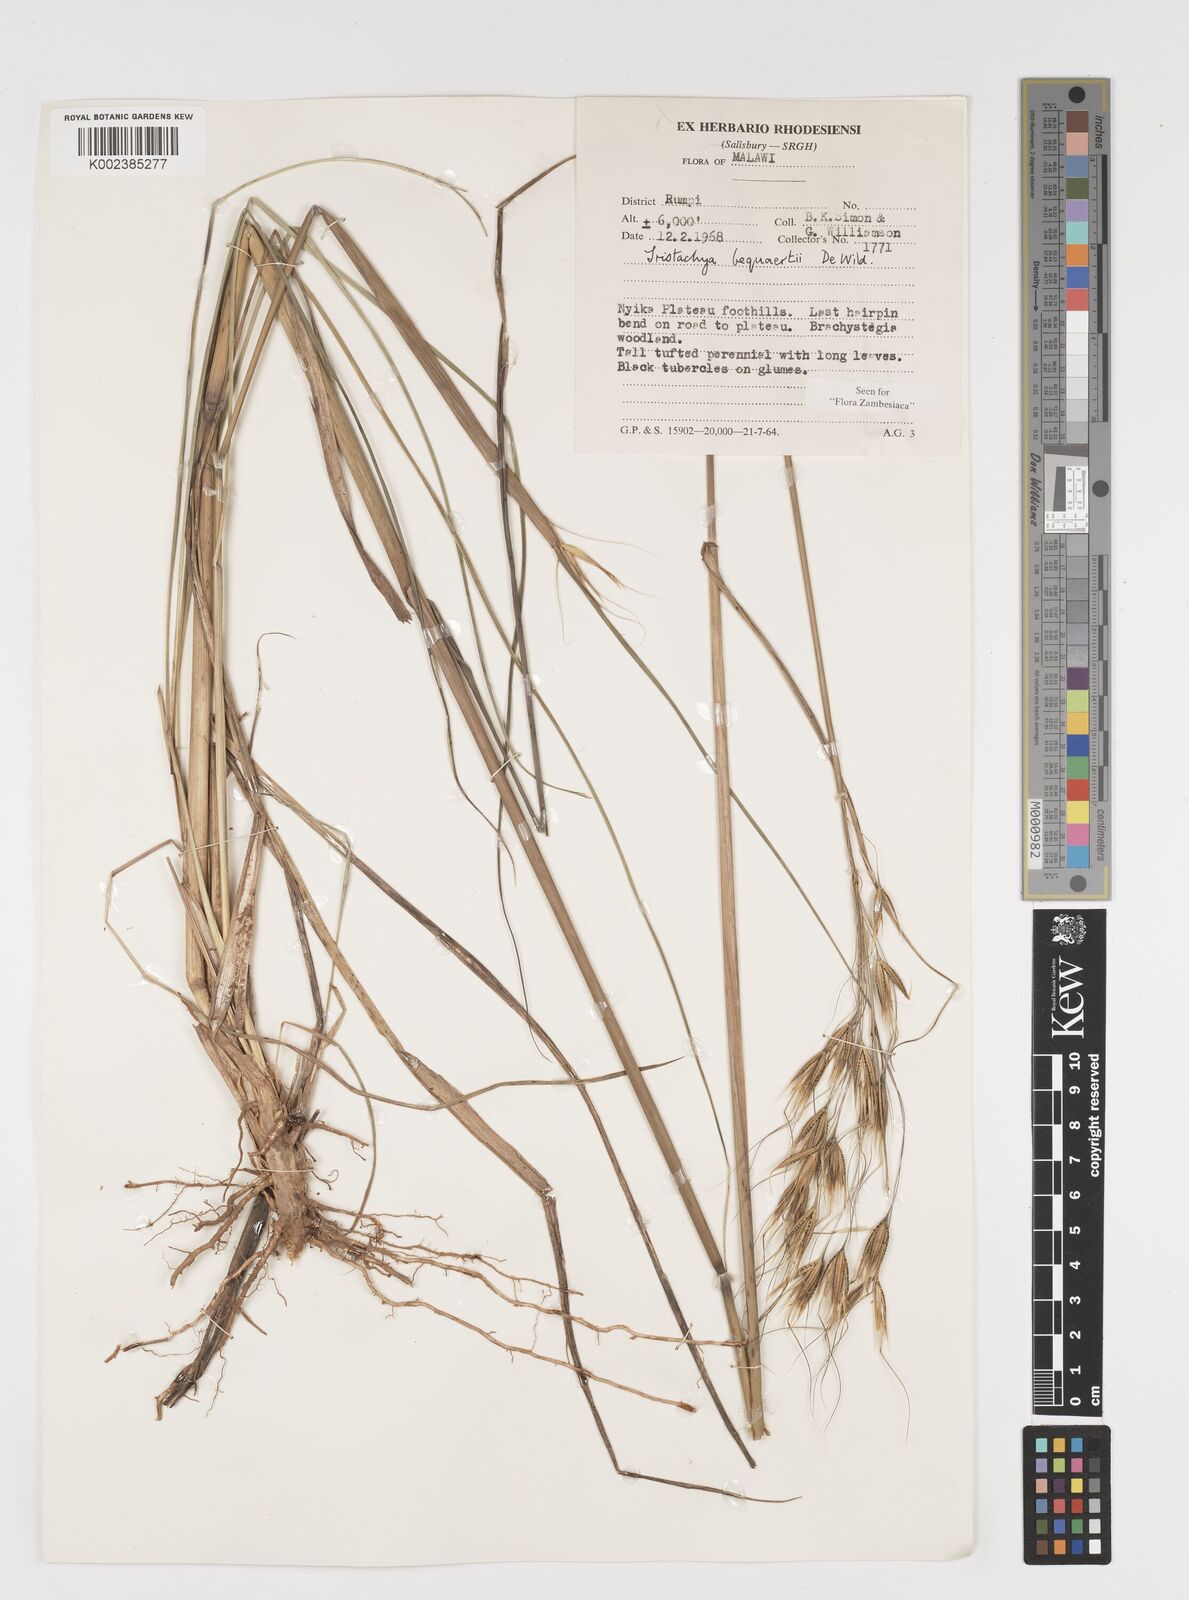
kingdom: Plantae
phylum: Tracheophyta
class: Liliopsida
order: Poales
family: Poaceae
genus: Tristachya
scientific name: Tristachya bequaertii
